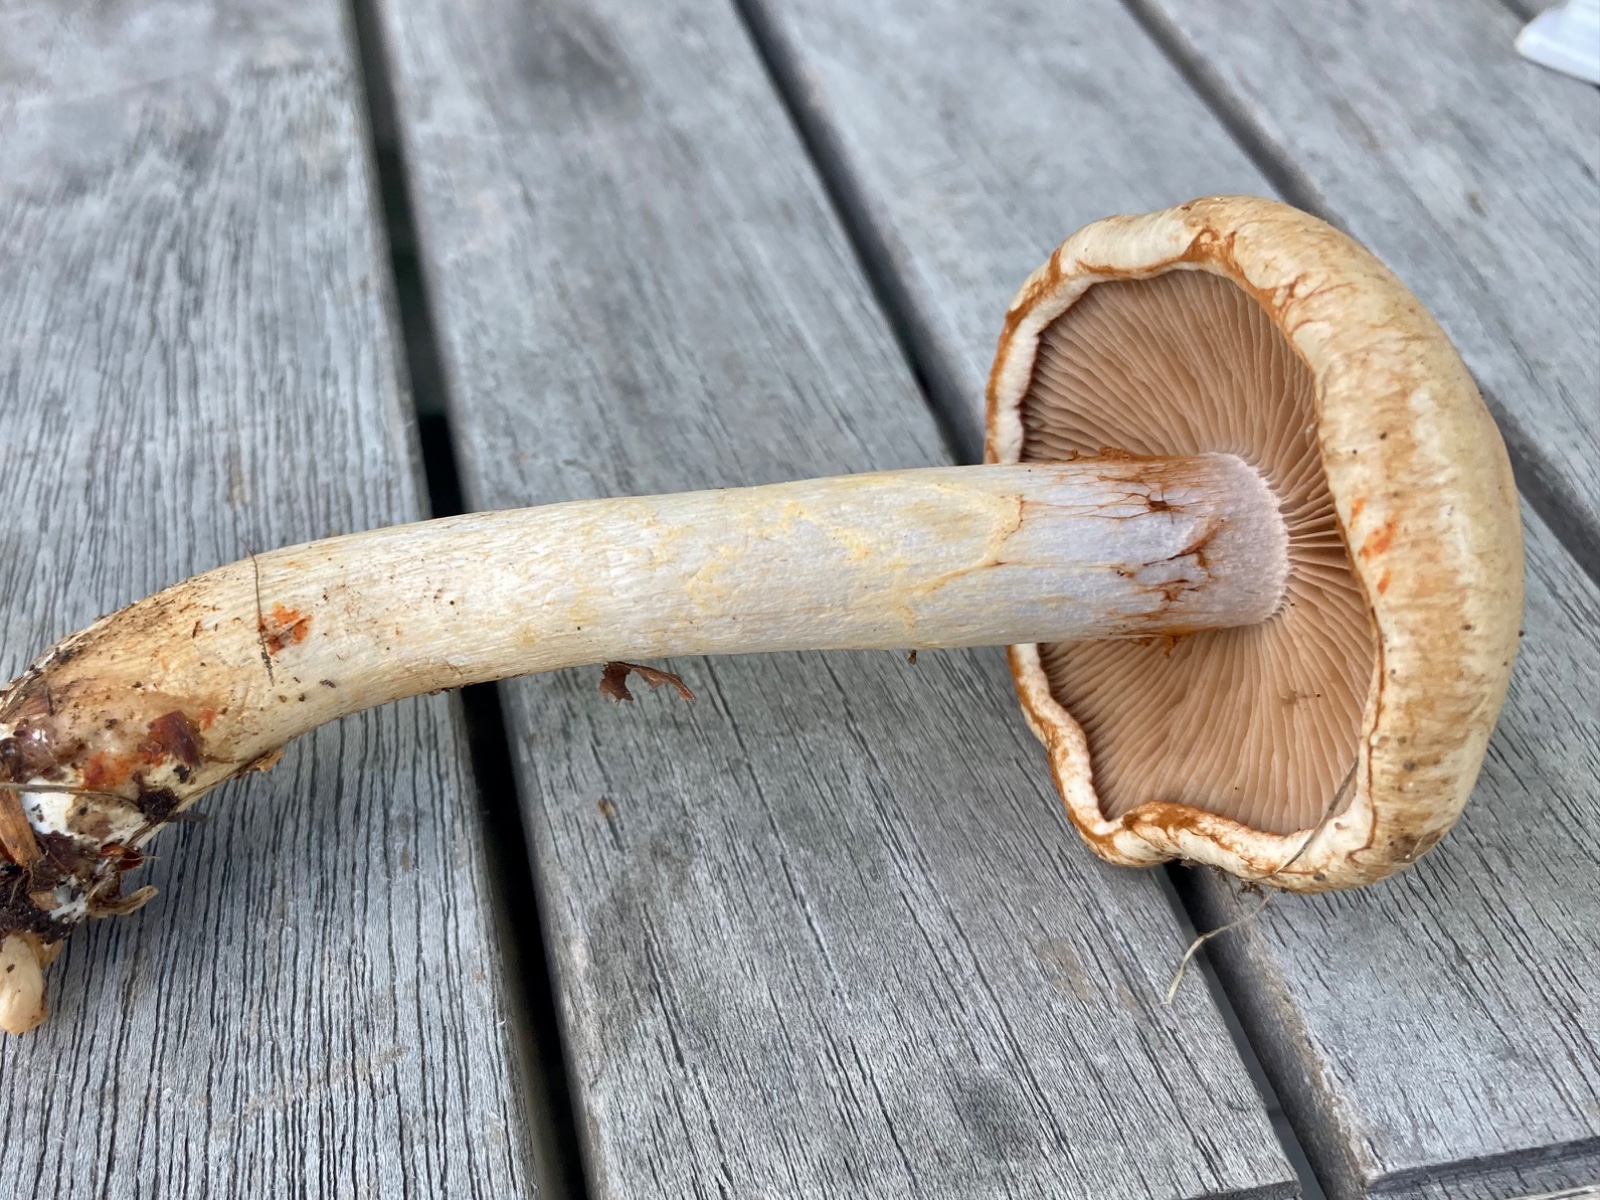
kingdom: Fungi
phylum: Basidiomycota
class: Agaricomycetes
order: Agaricales
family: Cortinariaceae
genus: Cortinarius
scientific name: Cortinarius
